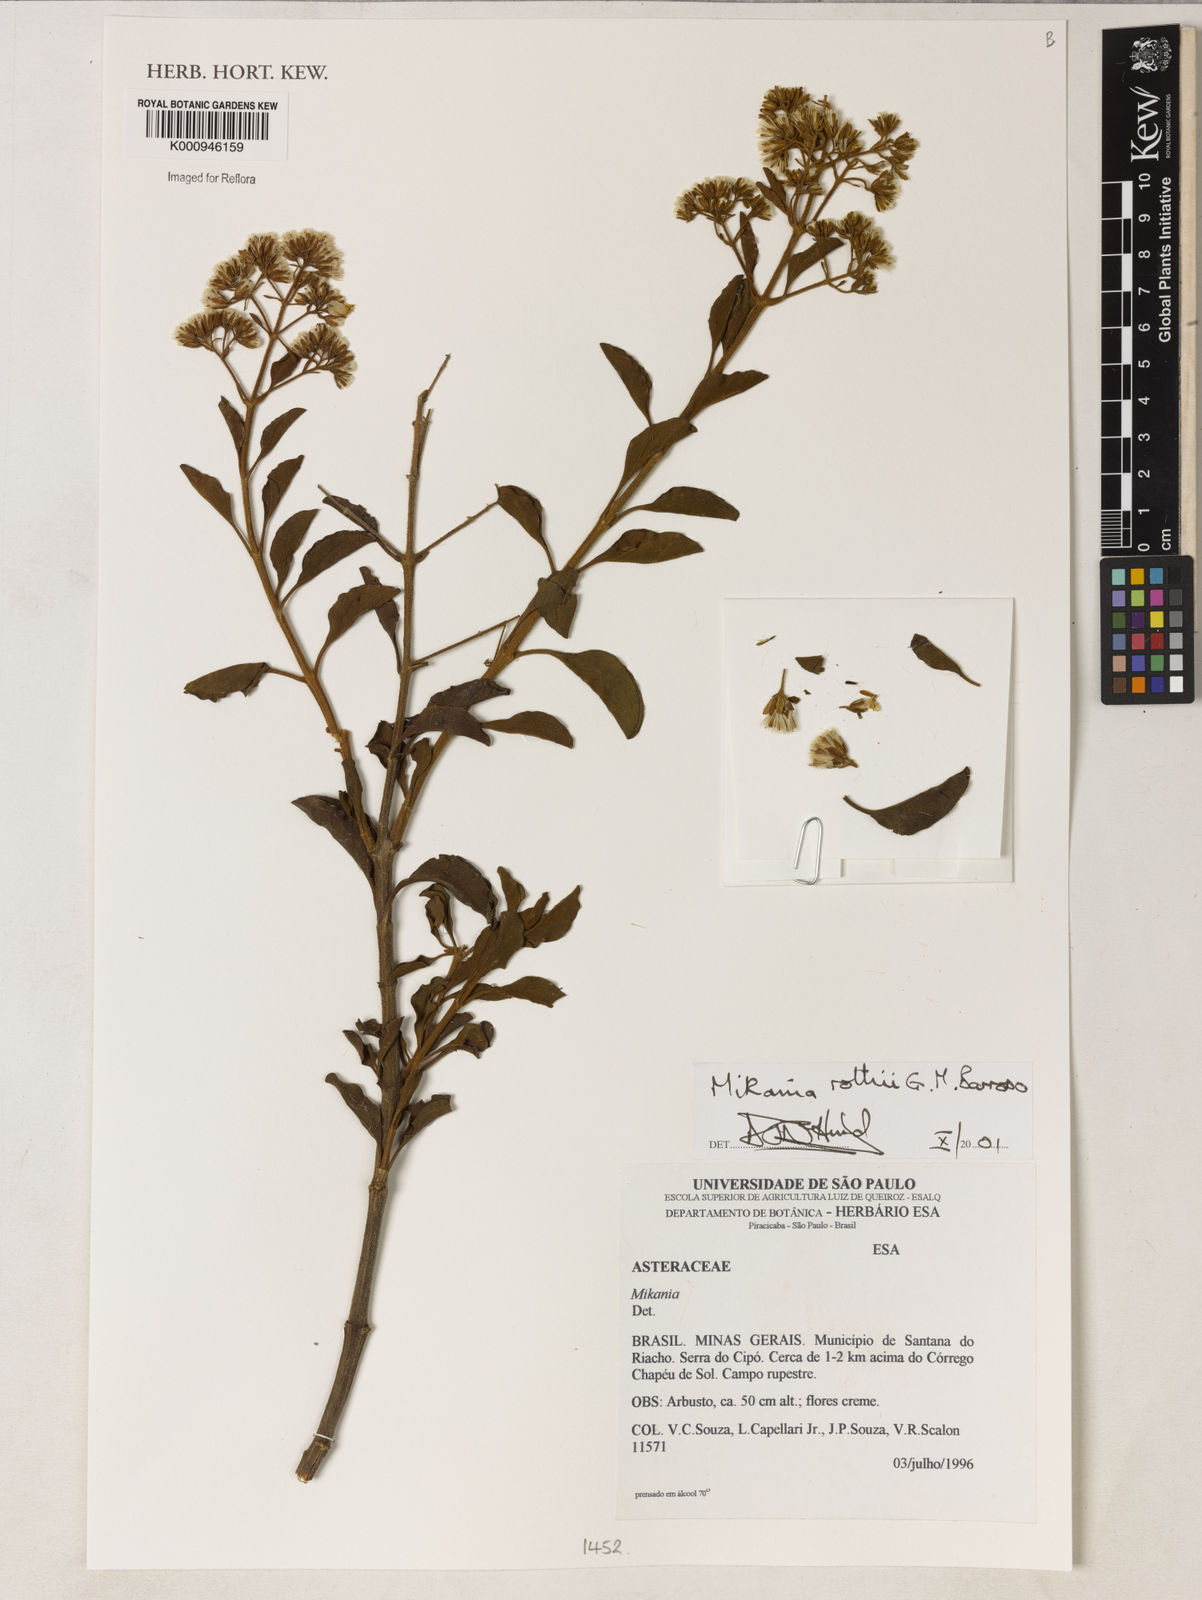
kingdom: Plantae
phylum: Tracheophyta
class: Magnoliopsida
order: Asterales
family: Asteraceae
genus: Mikania
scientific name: Mikania rothii
